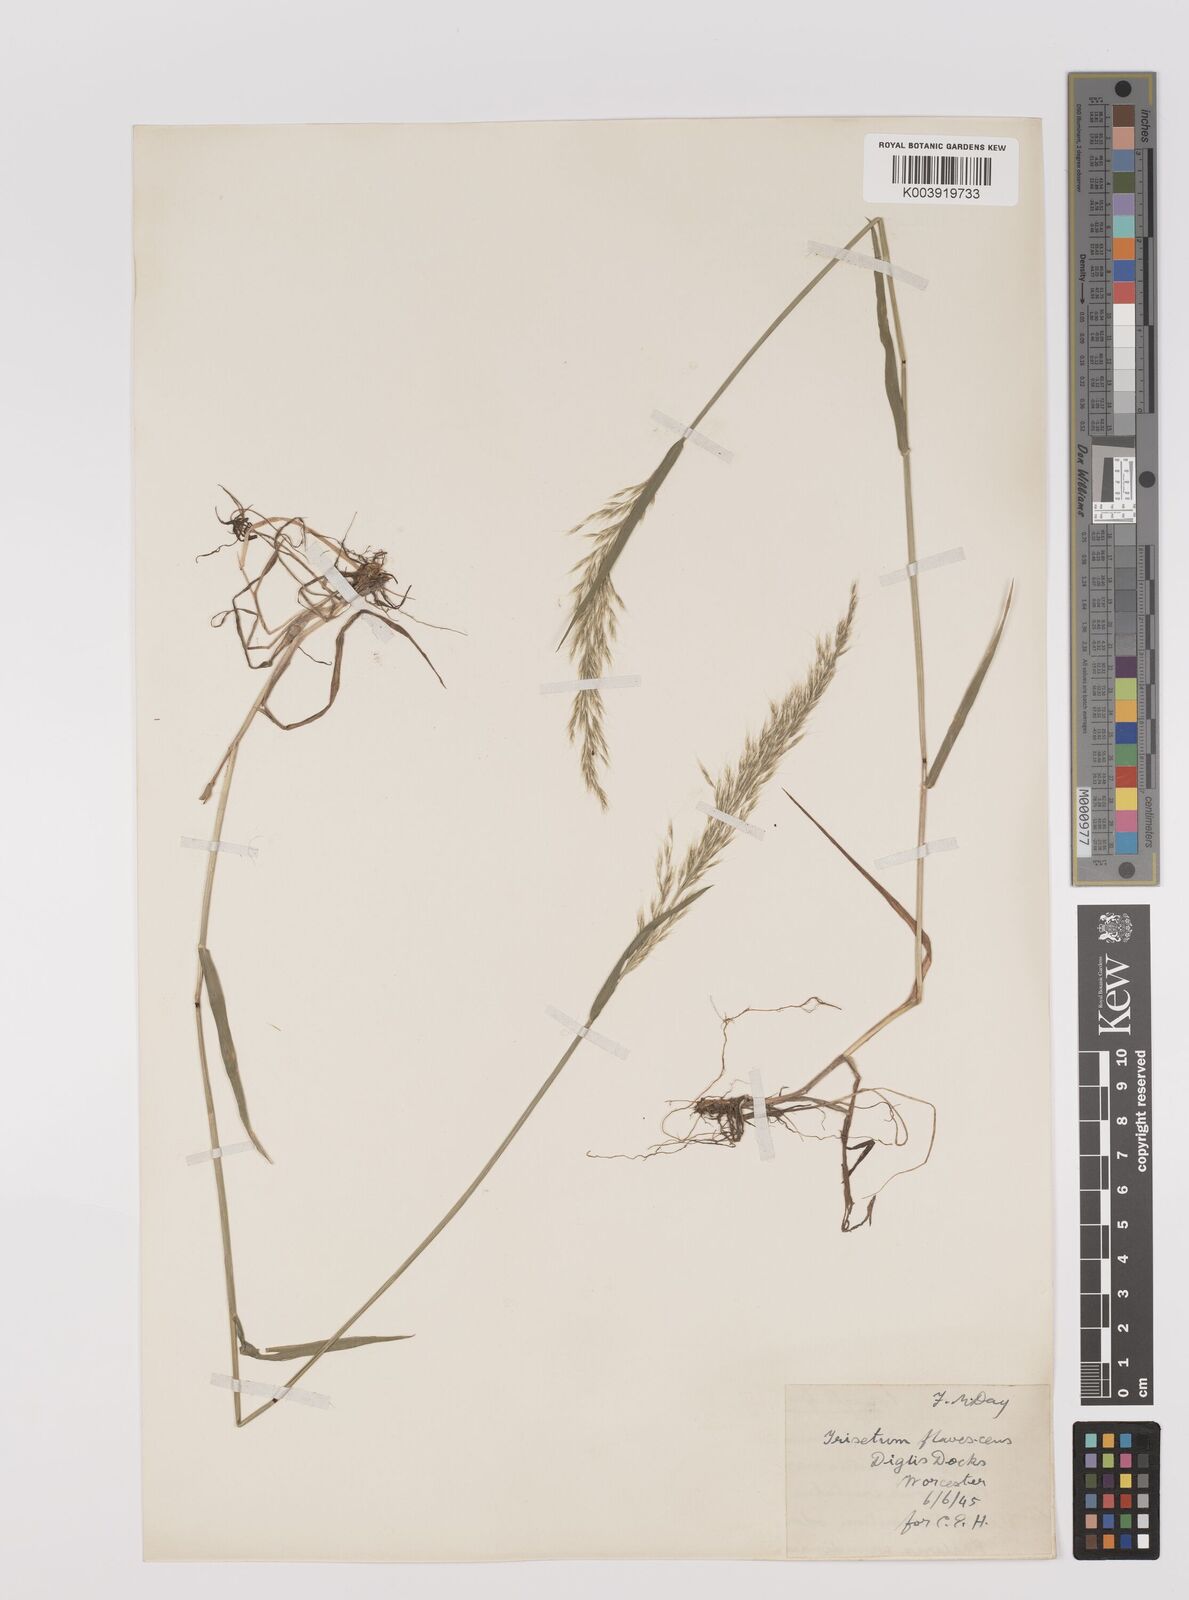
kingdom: Plantae
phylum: Tracheophyta
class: Liliopsida
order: Poales
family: Poaceae
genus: Trisetum
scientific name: Trisetum flavescens
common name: Yellow oat-grass
